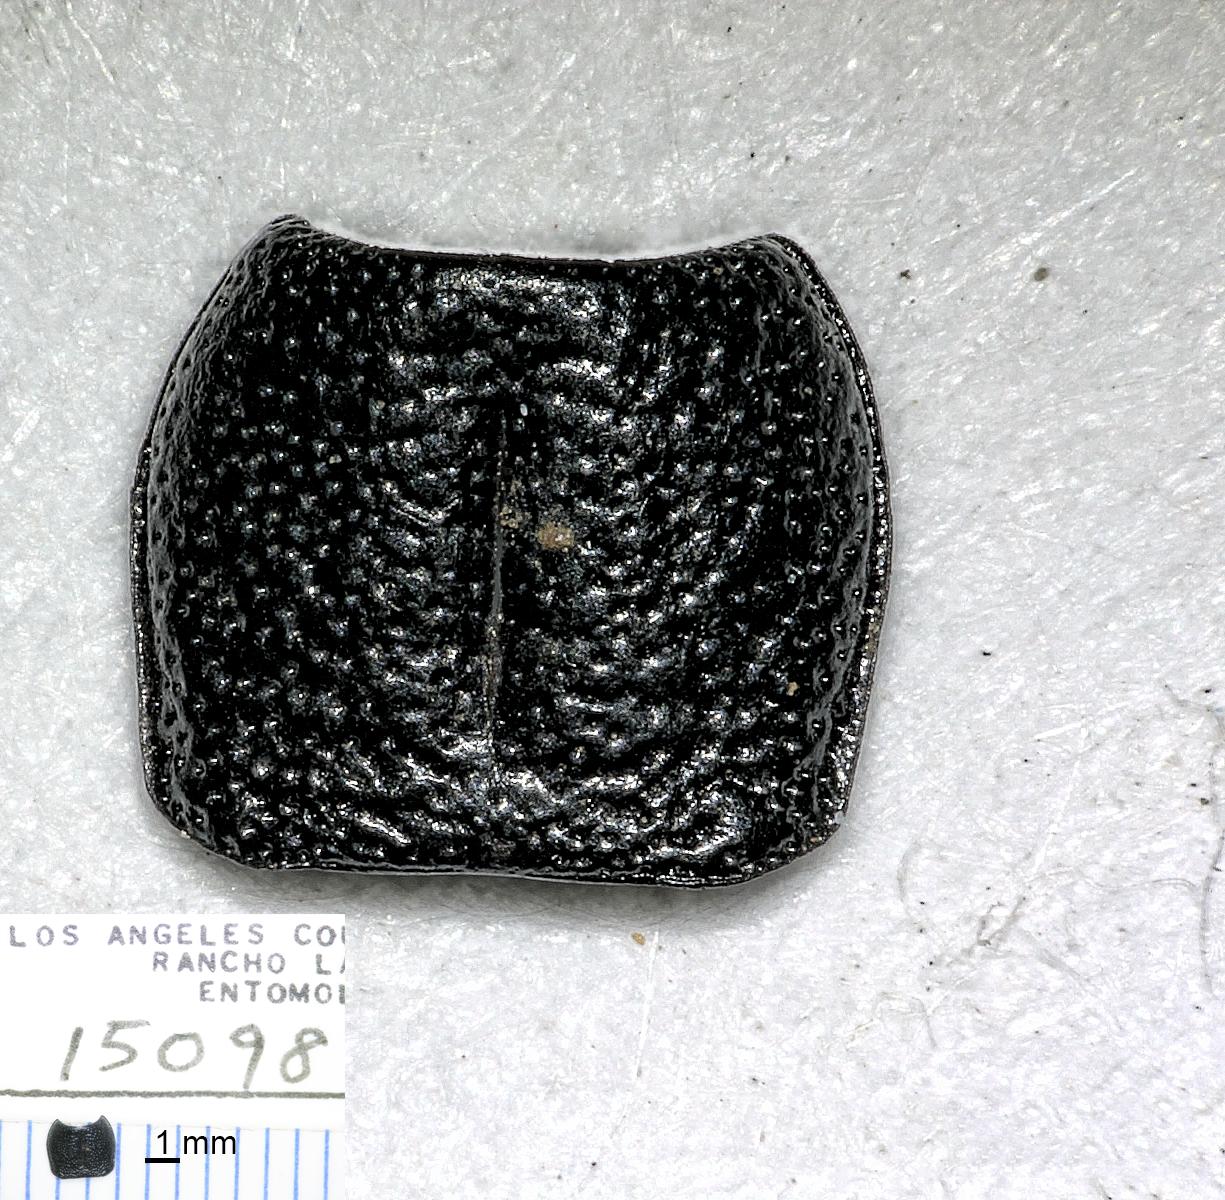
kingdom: Animalia
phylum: Arthropoda
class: Insecta
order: Coleoptera
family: Carabidae
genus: Dicheirus
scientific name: Dicheirus piceus
